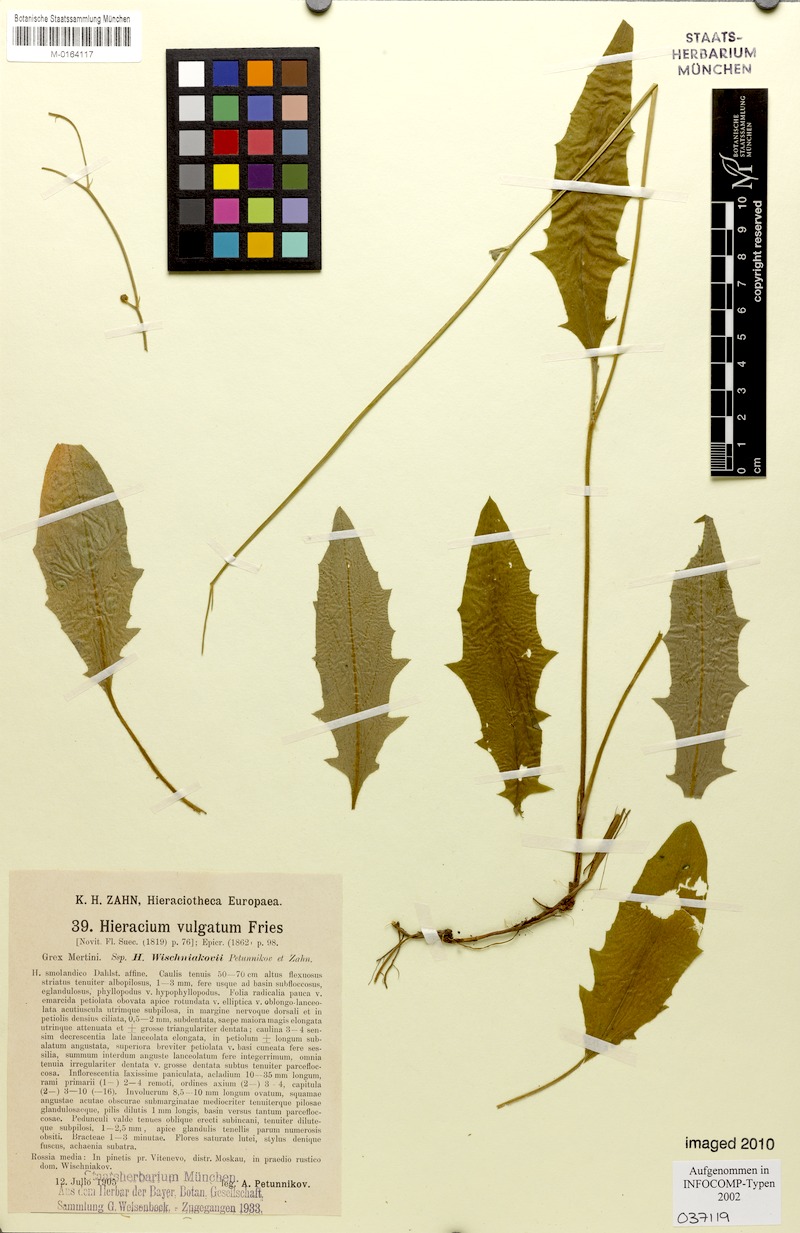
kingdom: Plantae
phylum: Tracheophyta
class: Magnoliopsida
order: Asterales
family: Asteraceae
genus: Hieracium
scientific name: Hieracium lachenalii
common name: Common hawkweed
